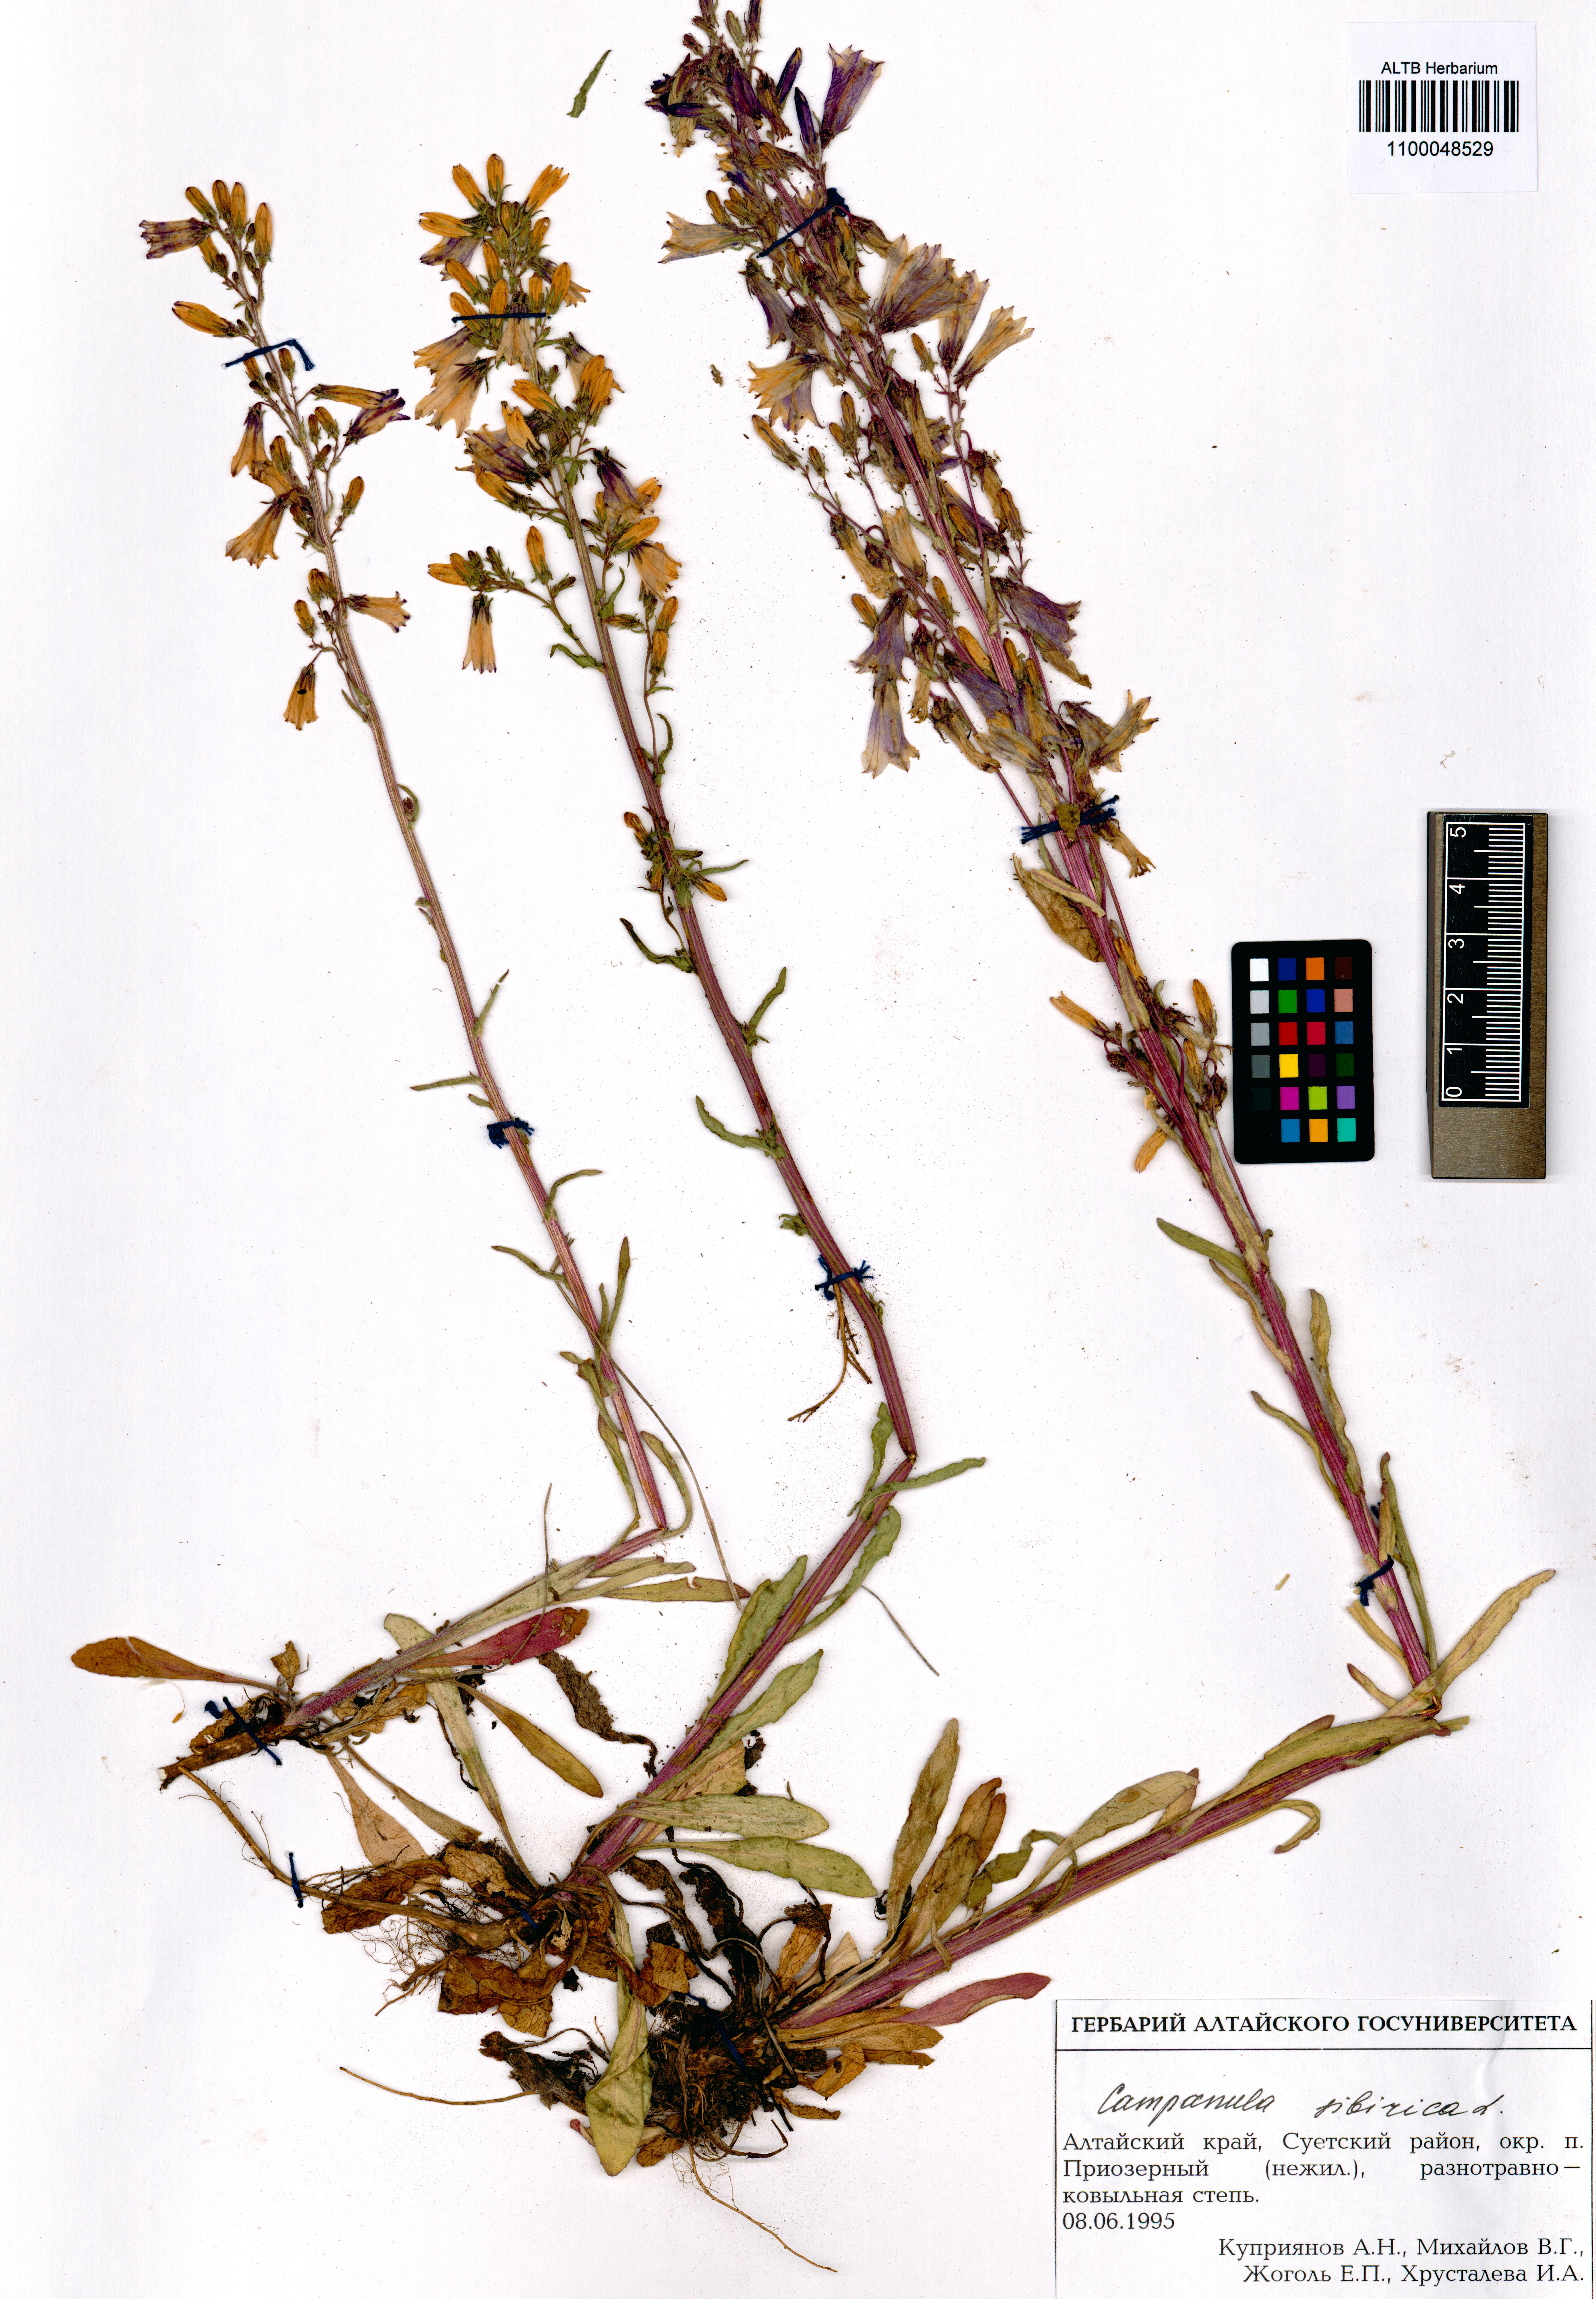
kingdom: Plantae
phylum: Tracheophyta
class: Magnoliopsida
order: Asterales
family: Campanulaceae
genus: Campanula
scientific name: Campanula sibirica
